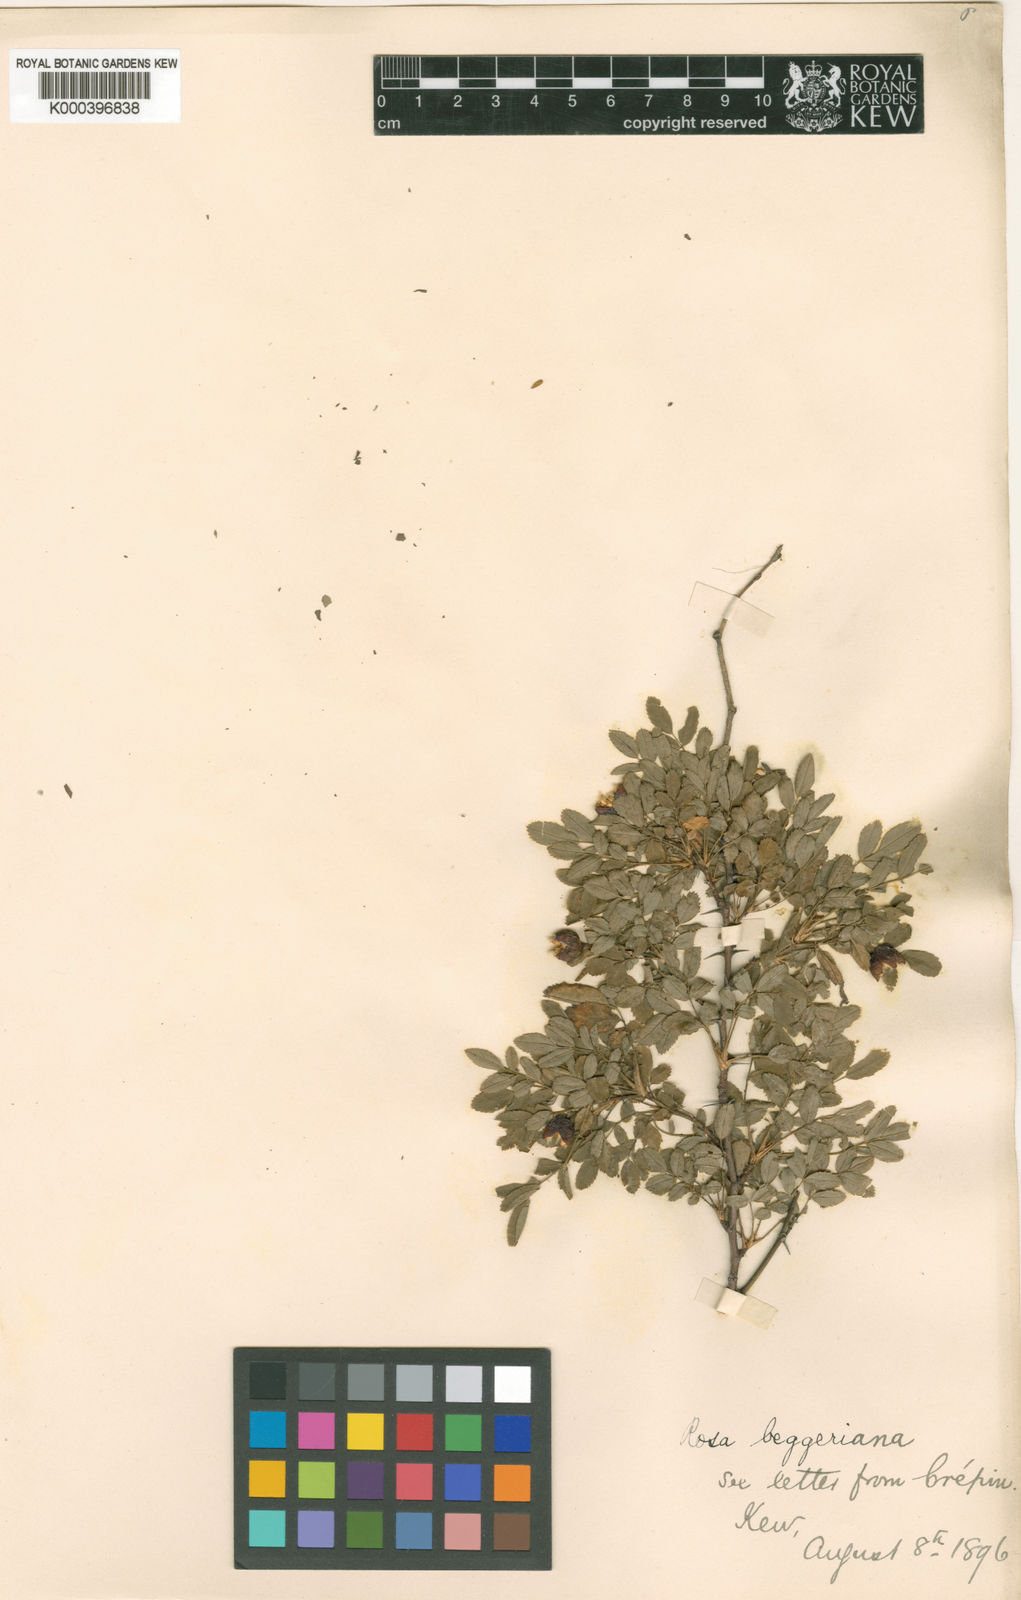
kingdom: Plantae
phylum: Tracheophyta
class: Magnoliopsida
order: Rosales
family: Rosaceae
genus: Rosa
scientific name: Rosa beggeriana
